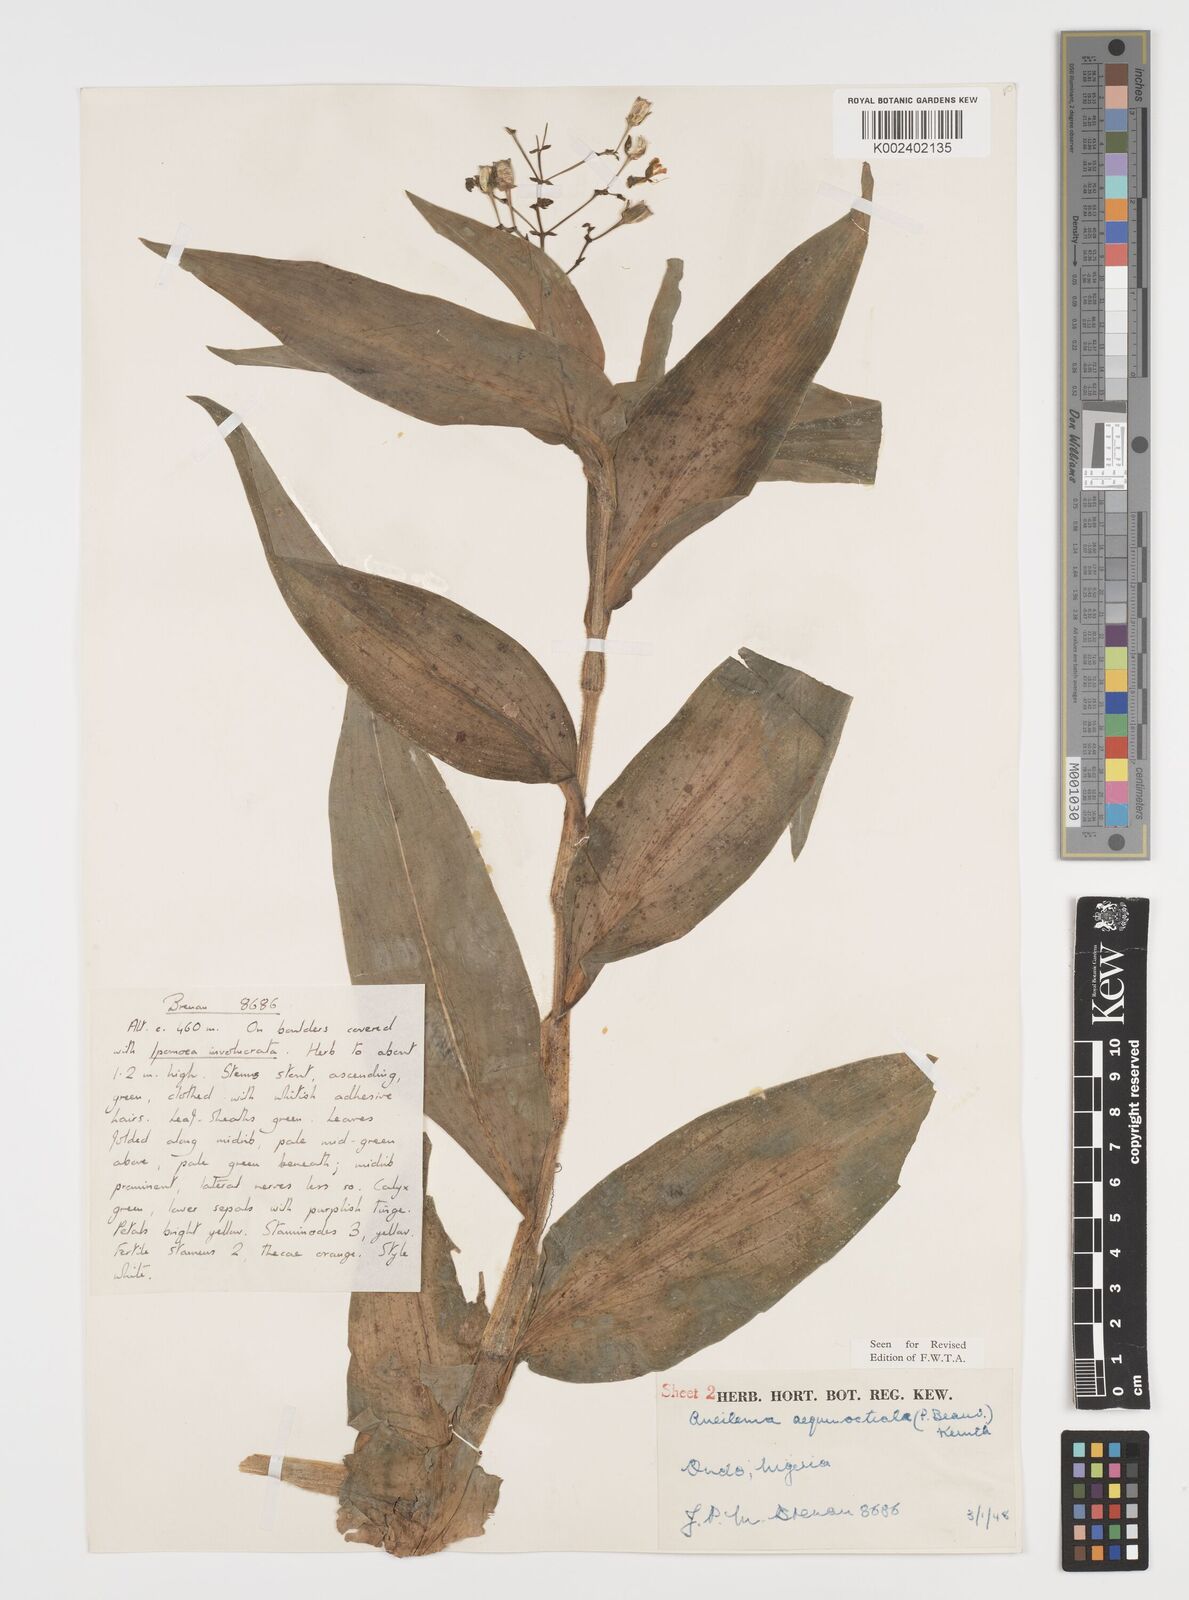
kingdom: Plantae
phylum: Tracheophyta
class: Liliopsida
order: Commelinales
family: Commelinaceae
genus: Aneilema
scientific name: Aneilema aequinoctiale
